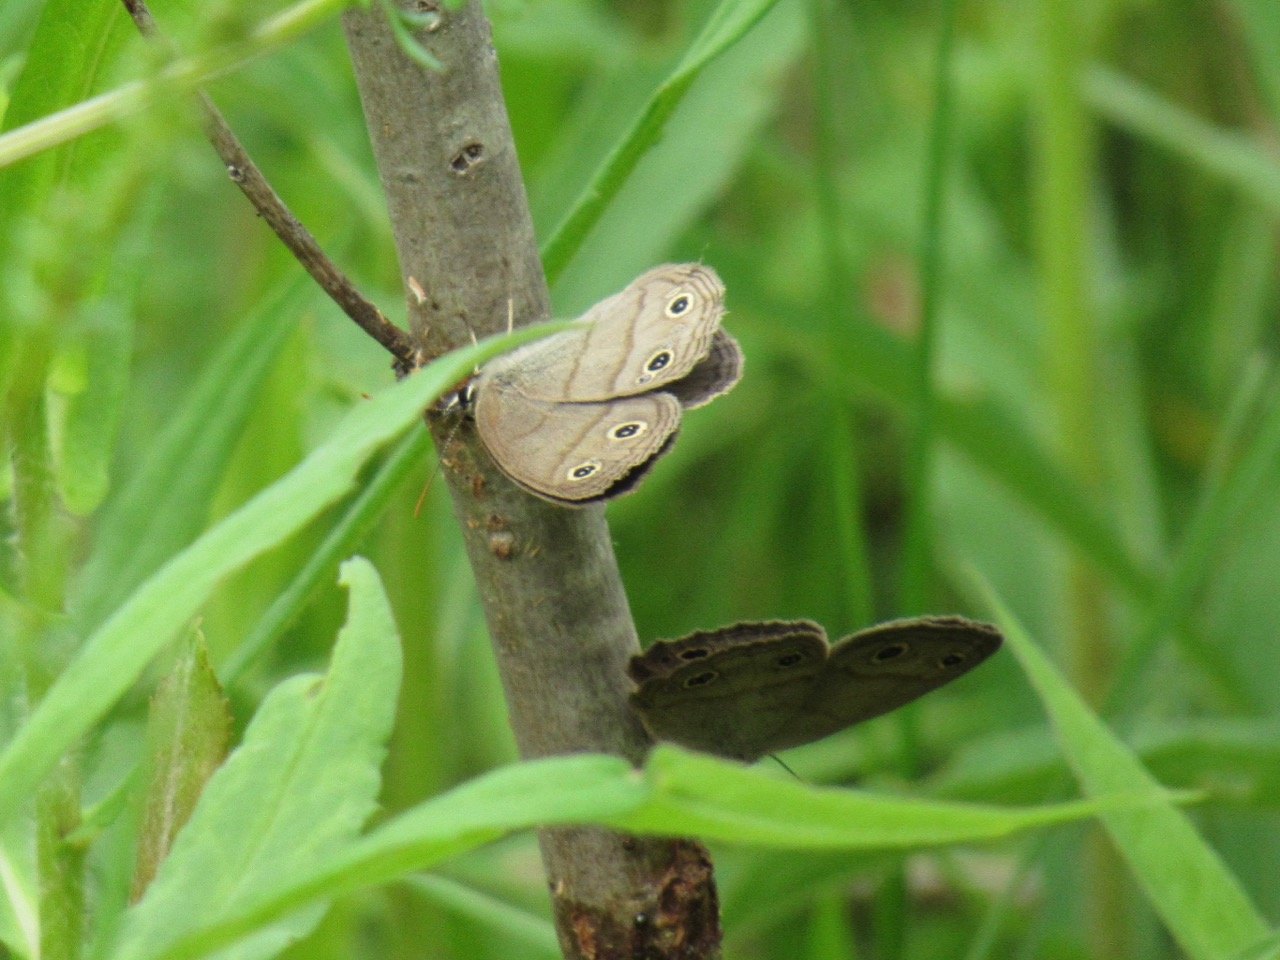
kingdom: Animalia
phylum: Arthropoda
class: Insecta
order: Lepidoptera
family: Nymphalidae
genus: Euptychia
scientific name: Euptychia cymela
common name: Little Wood Satyr
